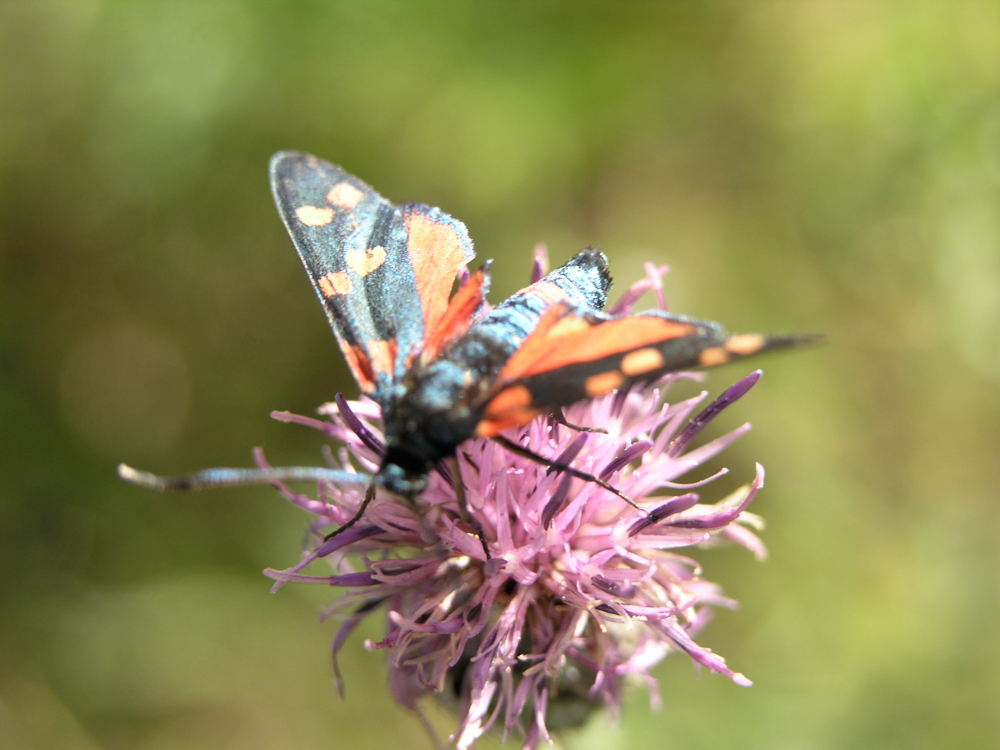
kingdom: Animalia
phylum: Arthropoda
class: Insecta
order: Lepidoptera
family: Zygaenidae
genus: Zygaena
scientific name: Zygaena ephialtes
